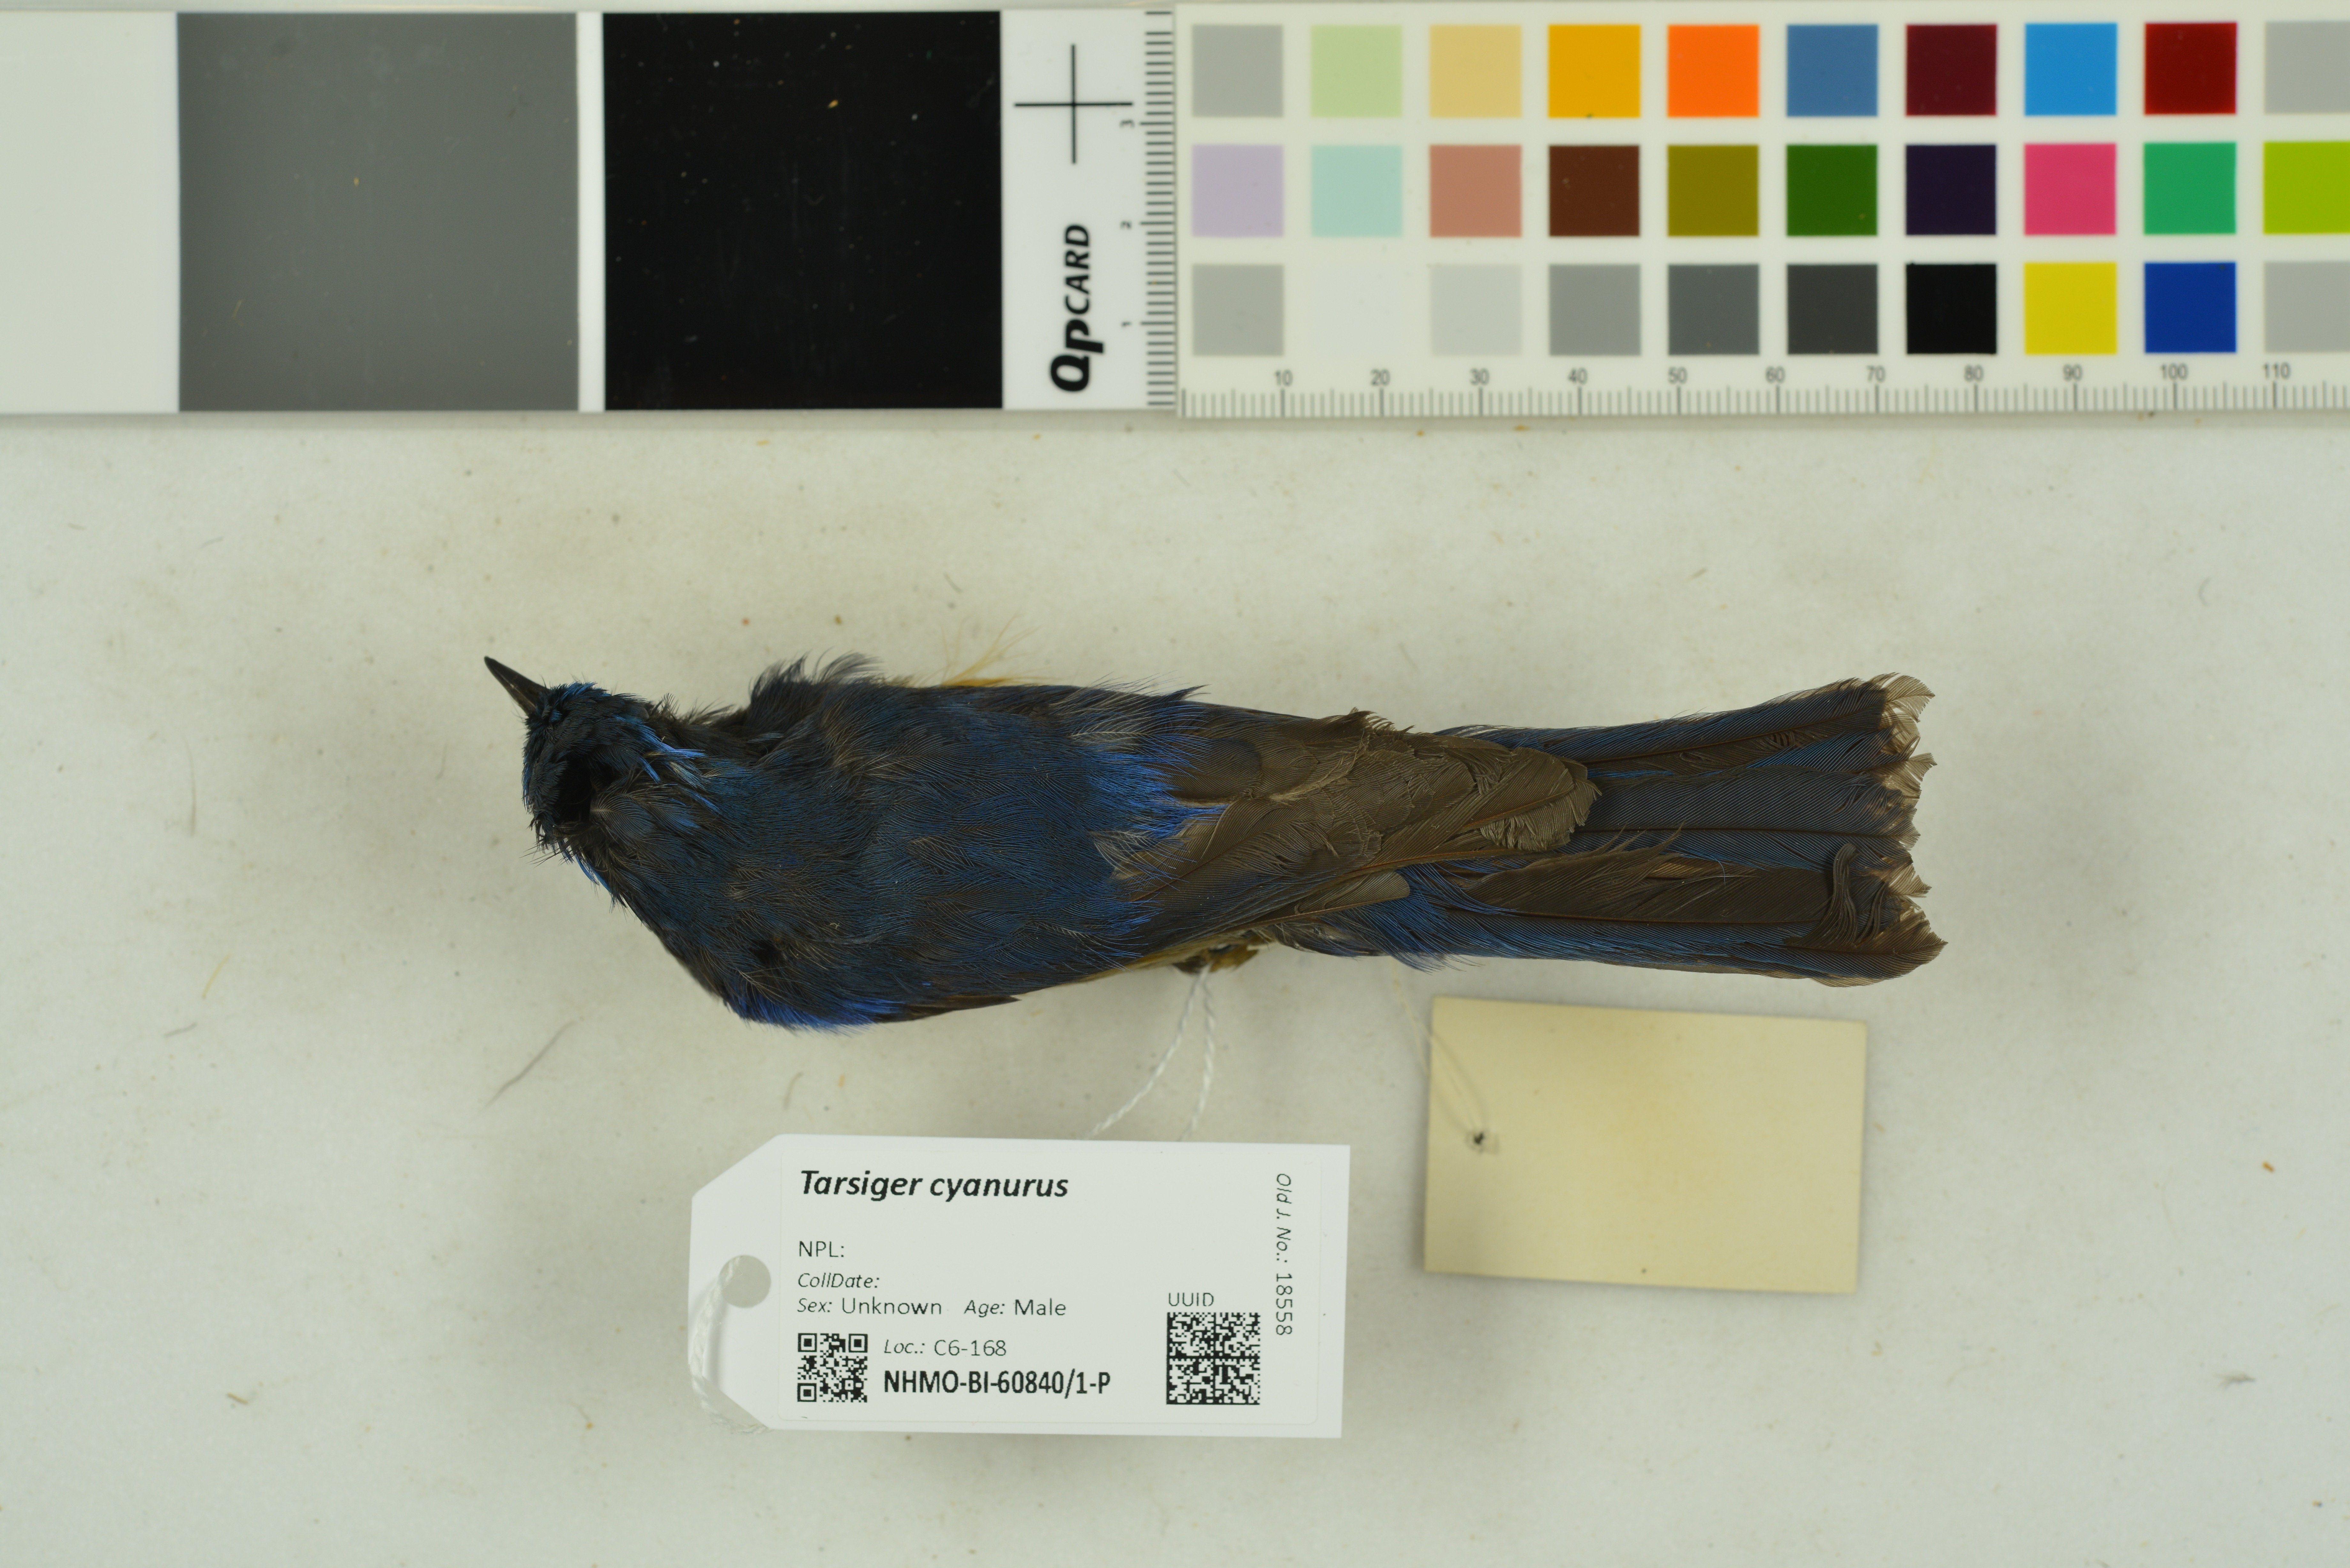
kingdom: Animalia
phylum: Chordata
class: Aves
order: Passeriformes
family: Muscicapidae
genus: Tarsiger
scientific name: Tarsiger cyanurus
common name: Red-flanked bluetail
